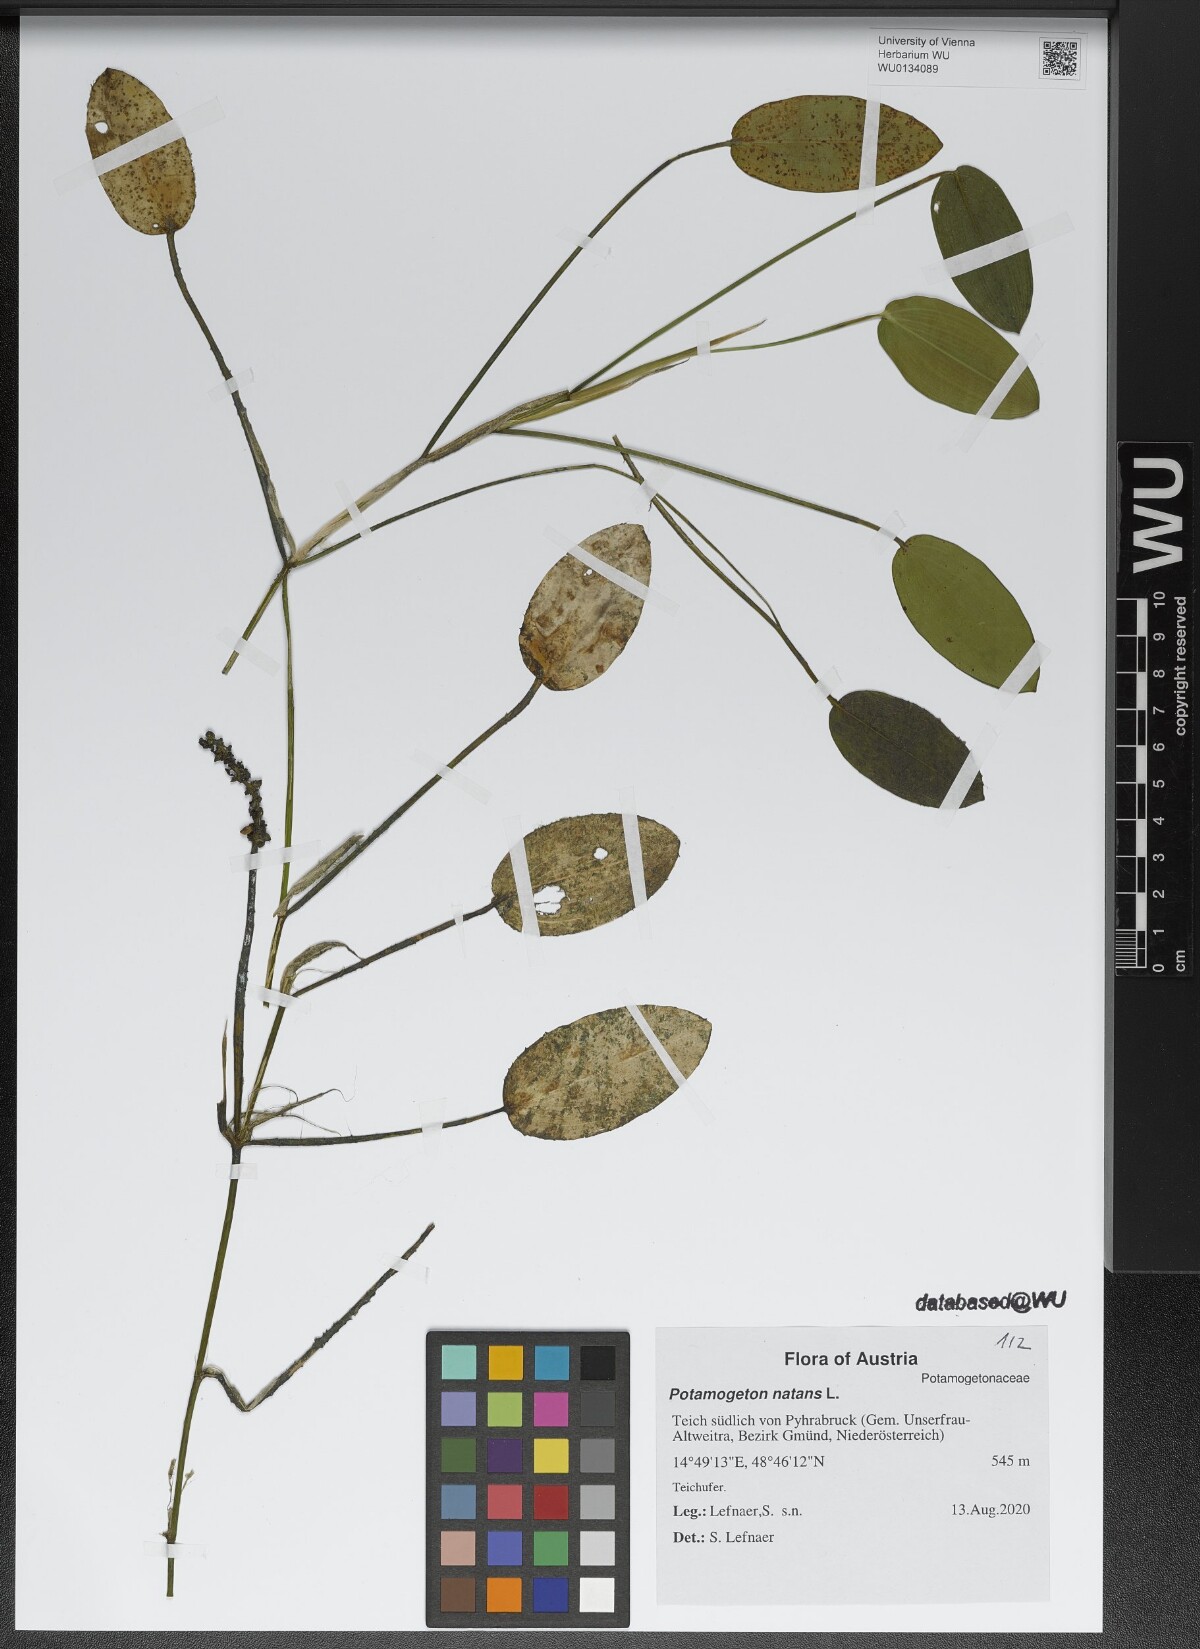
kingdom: Plantae
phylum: Tracheophyta
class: Liliopsida
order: Alismatales
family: Potamogetonaceae
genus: Potamogeton
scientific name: Potamogeton natans
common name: Broad-leaved pondweed
